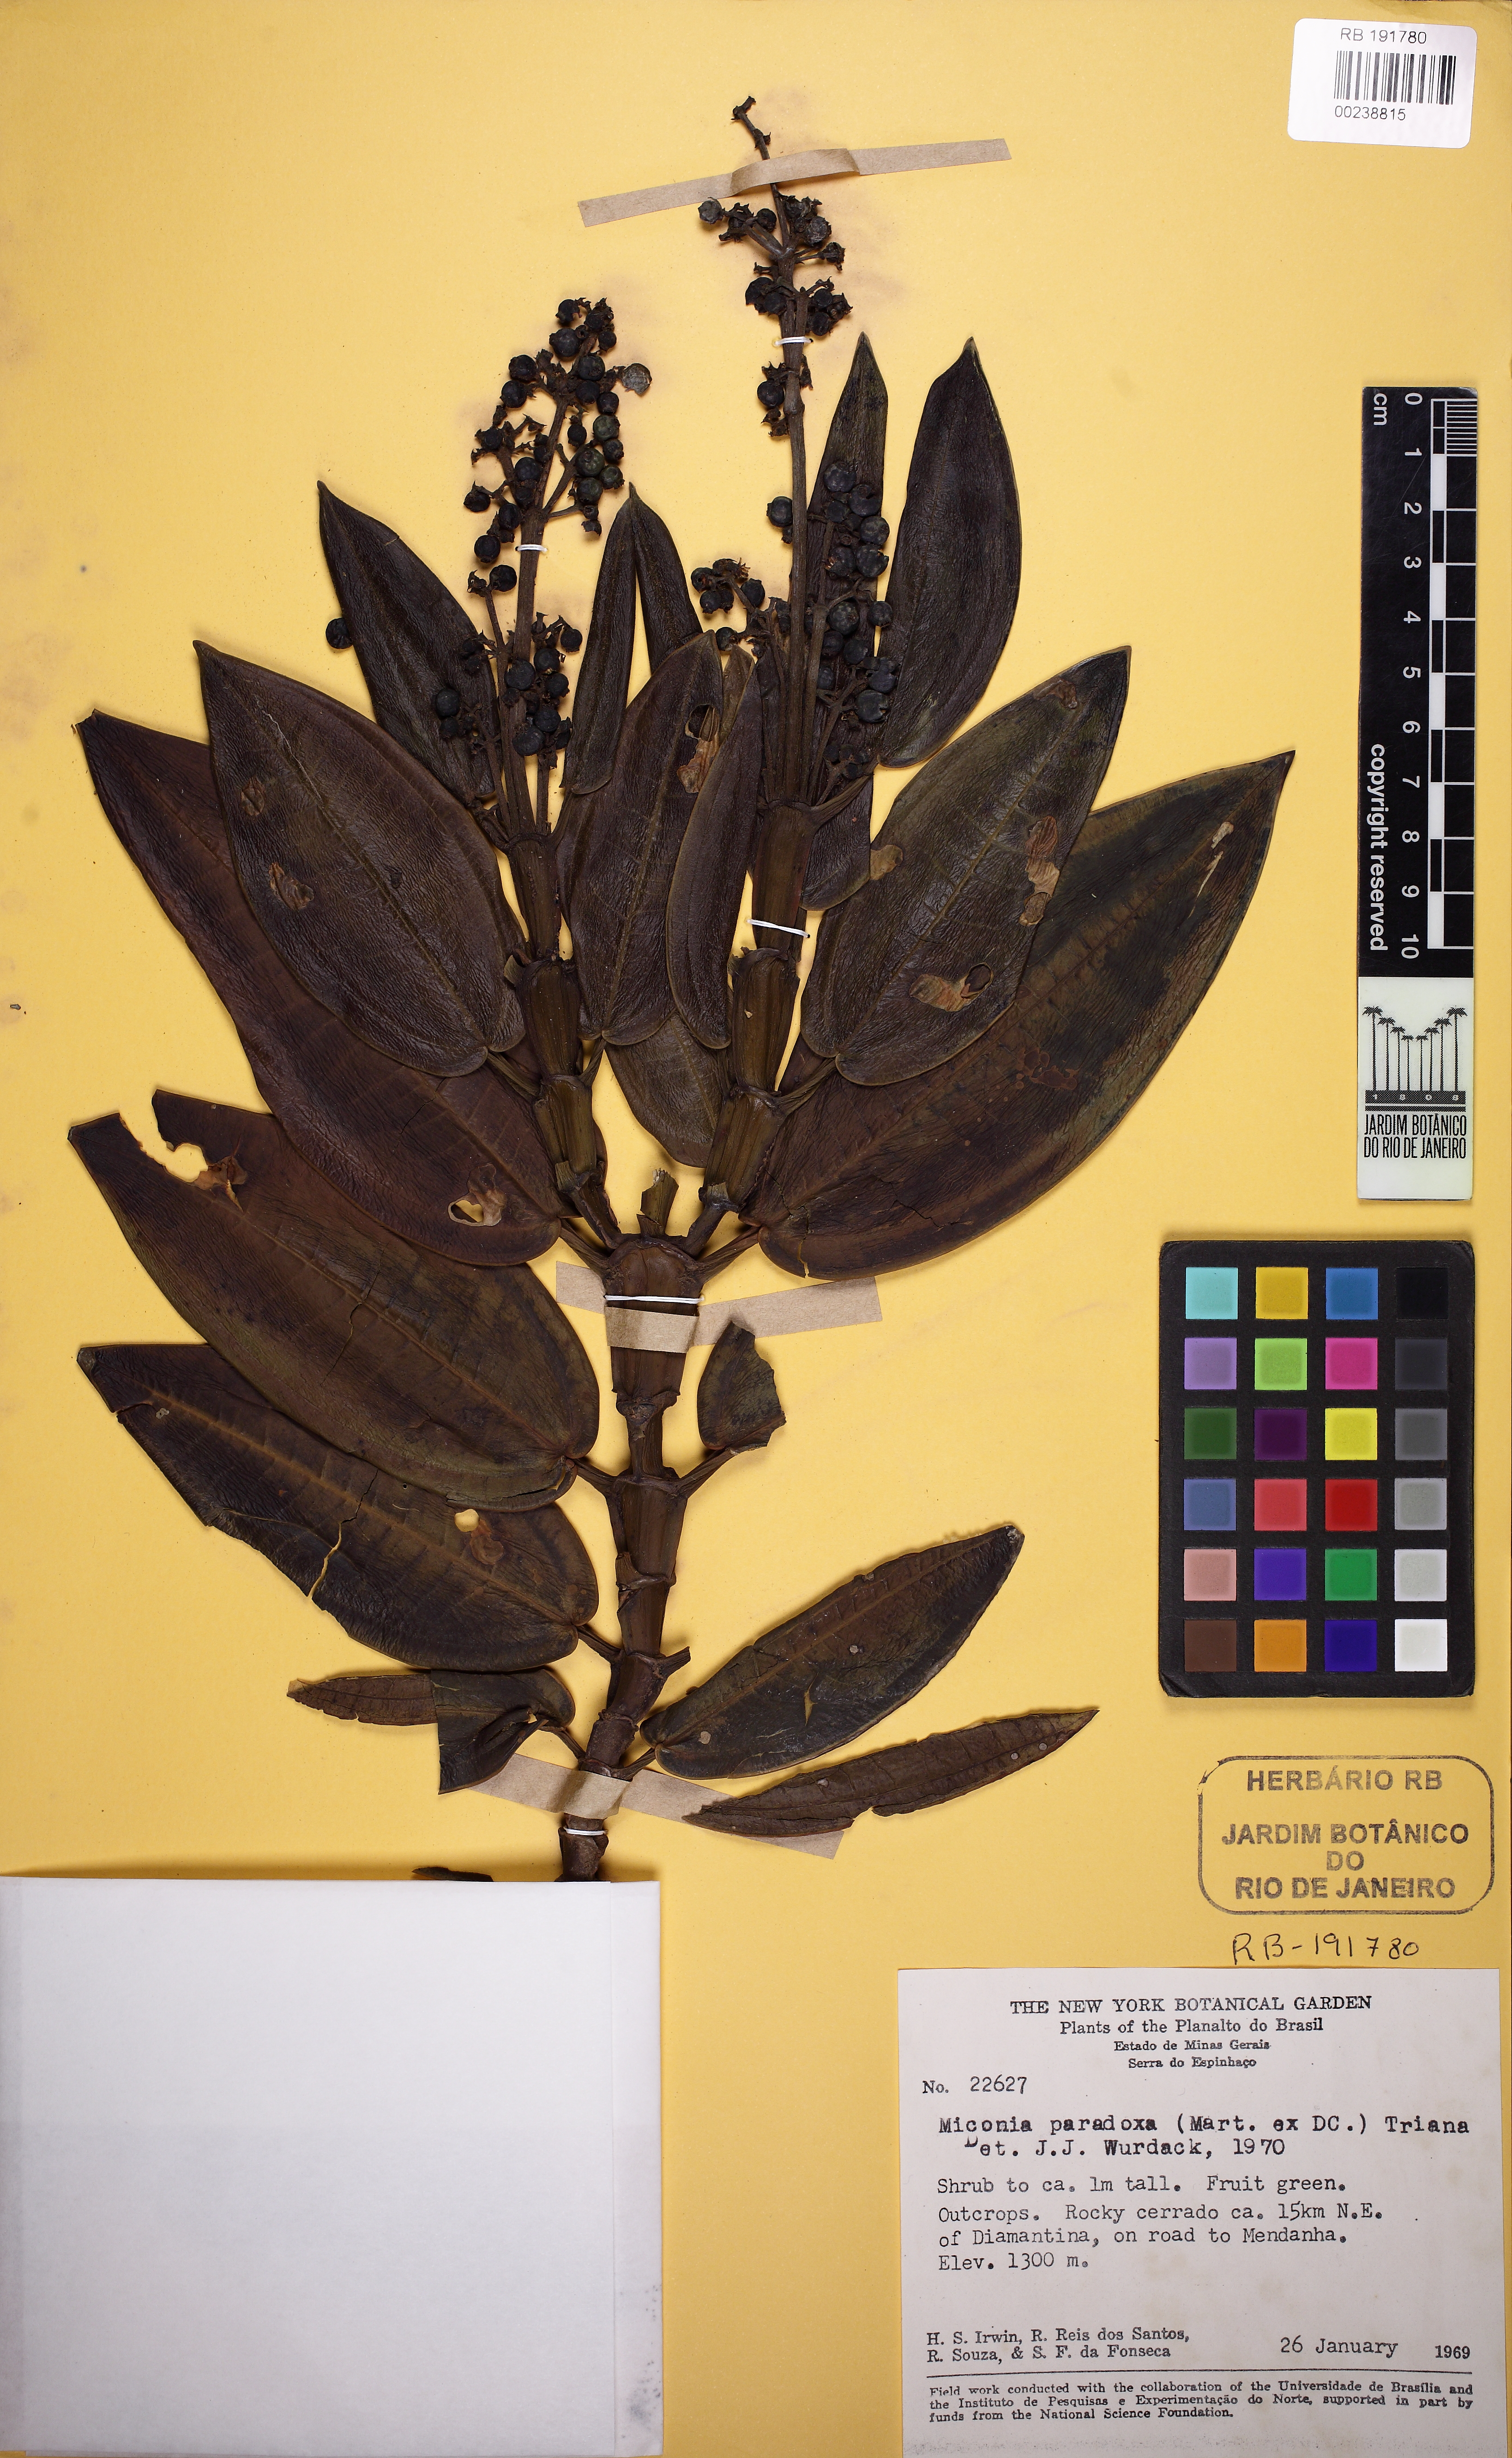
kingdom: Plantae
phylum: Tracheophyta
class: Magnoliopsida
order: Myrtales
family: Melastomataceae
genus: Miconia
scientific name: Miconia paradoxa
